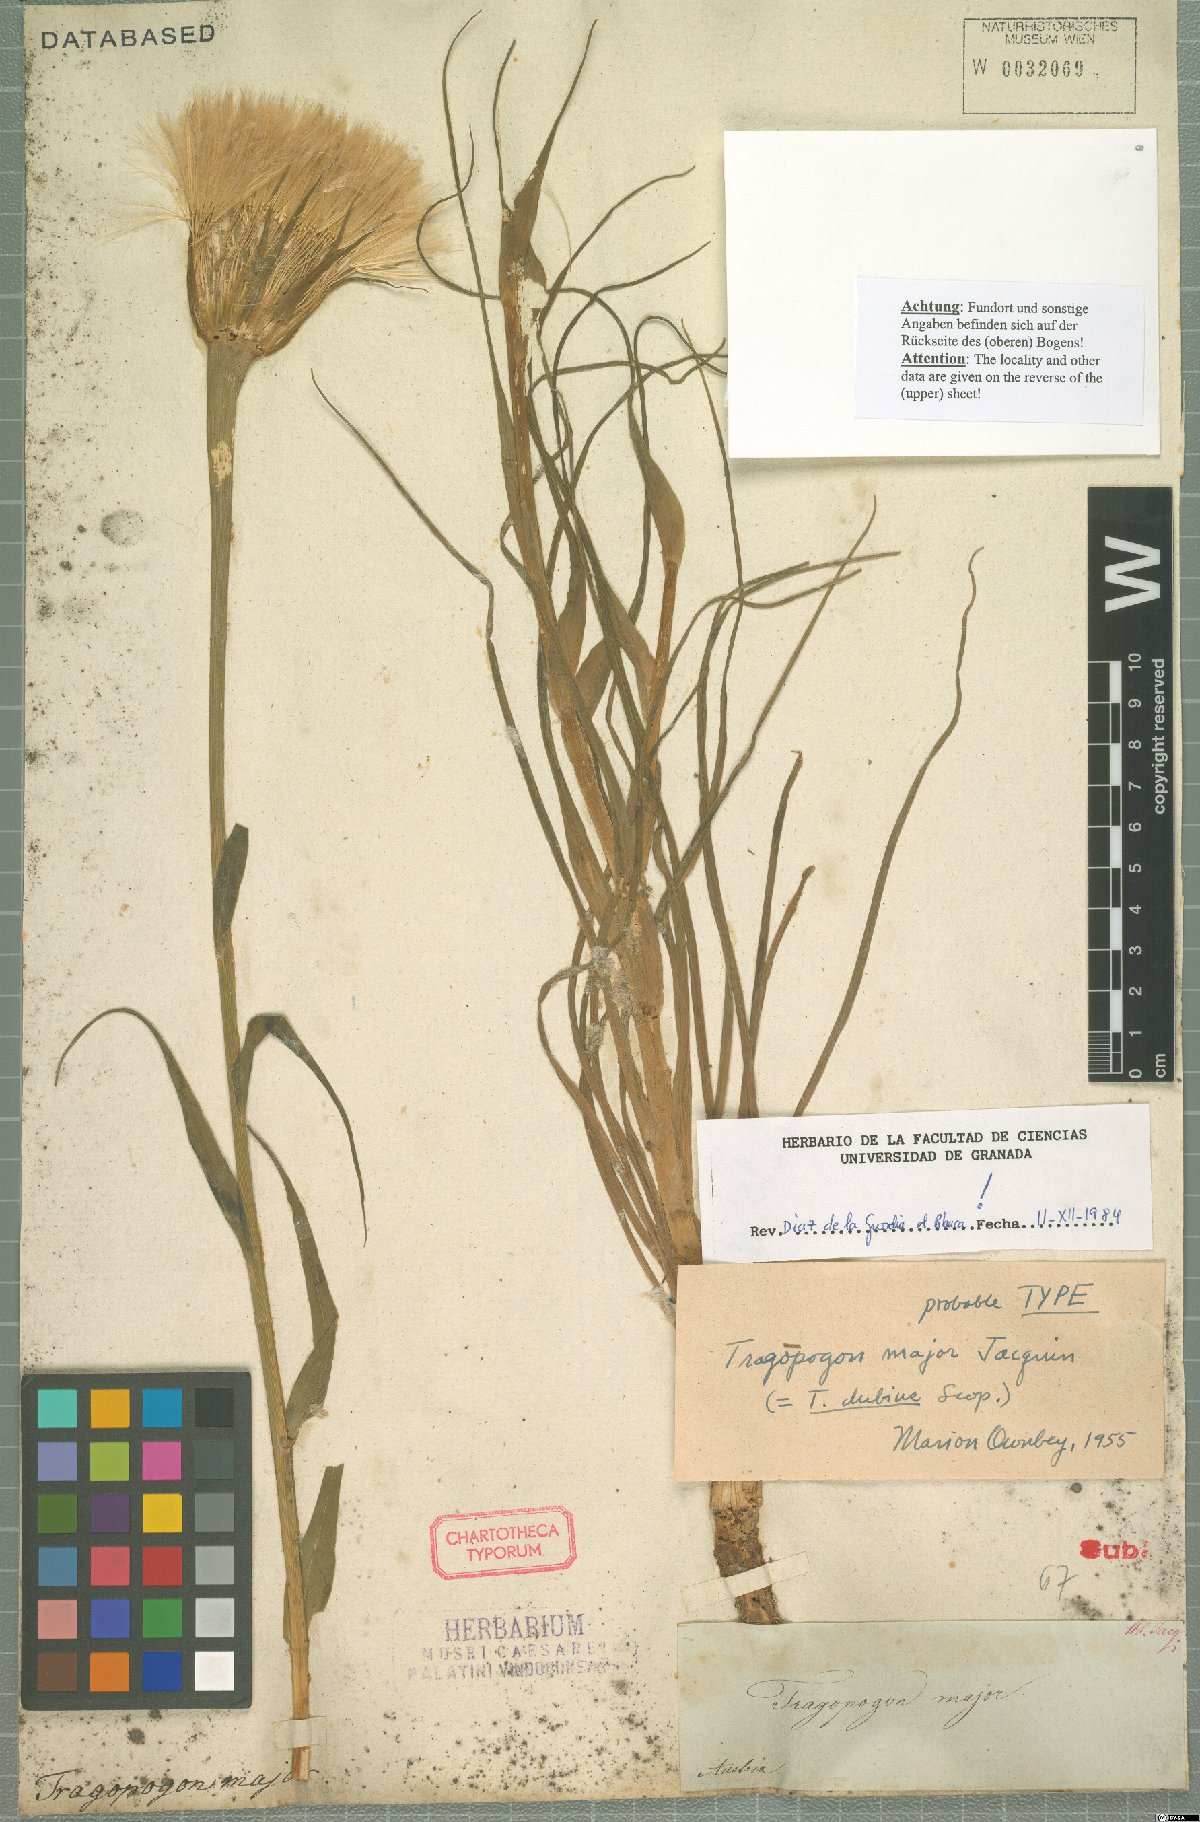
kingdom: Plantae
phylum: Tracheophyta
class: Magnoliopsida
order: Asterales
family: Asteraceae
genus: Tragopogon
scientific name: Tragopogon dubius
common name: Yellow salsify
